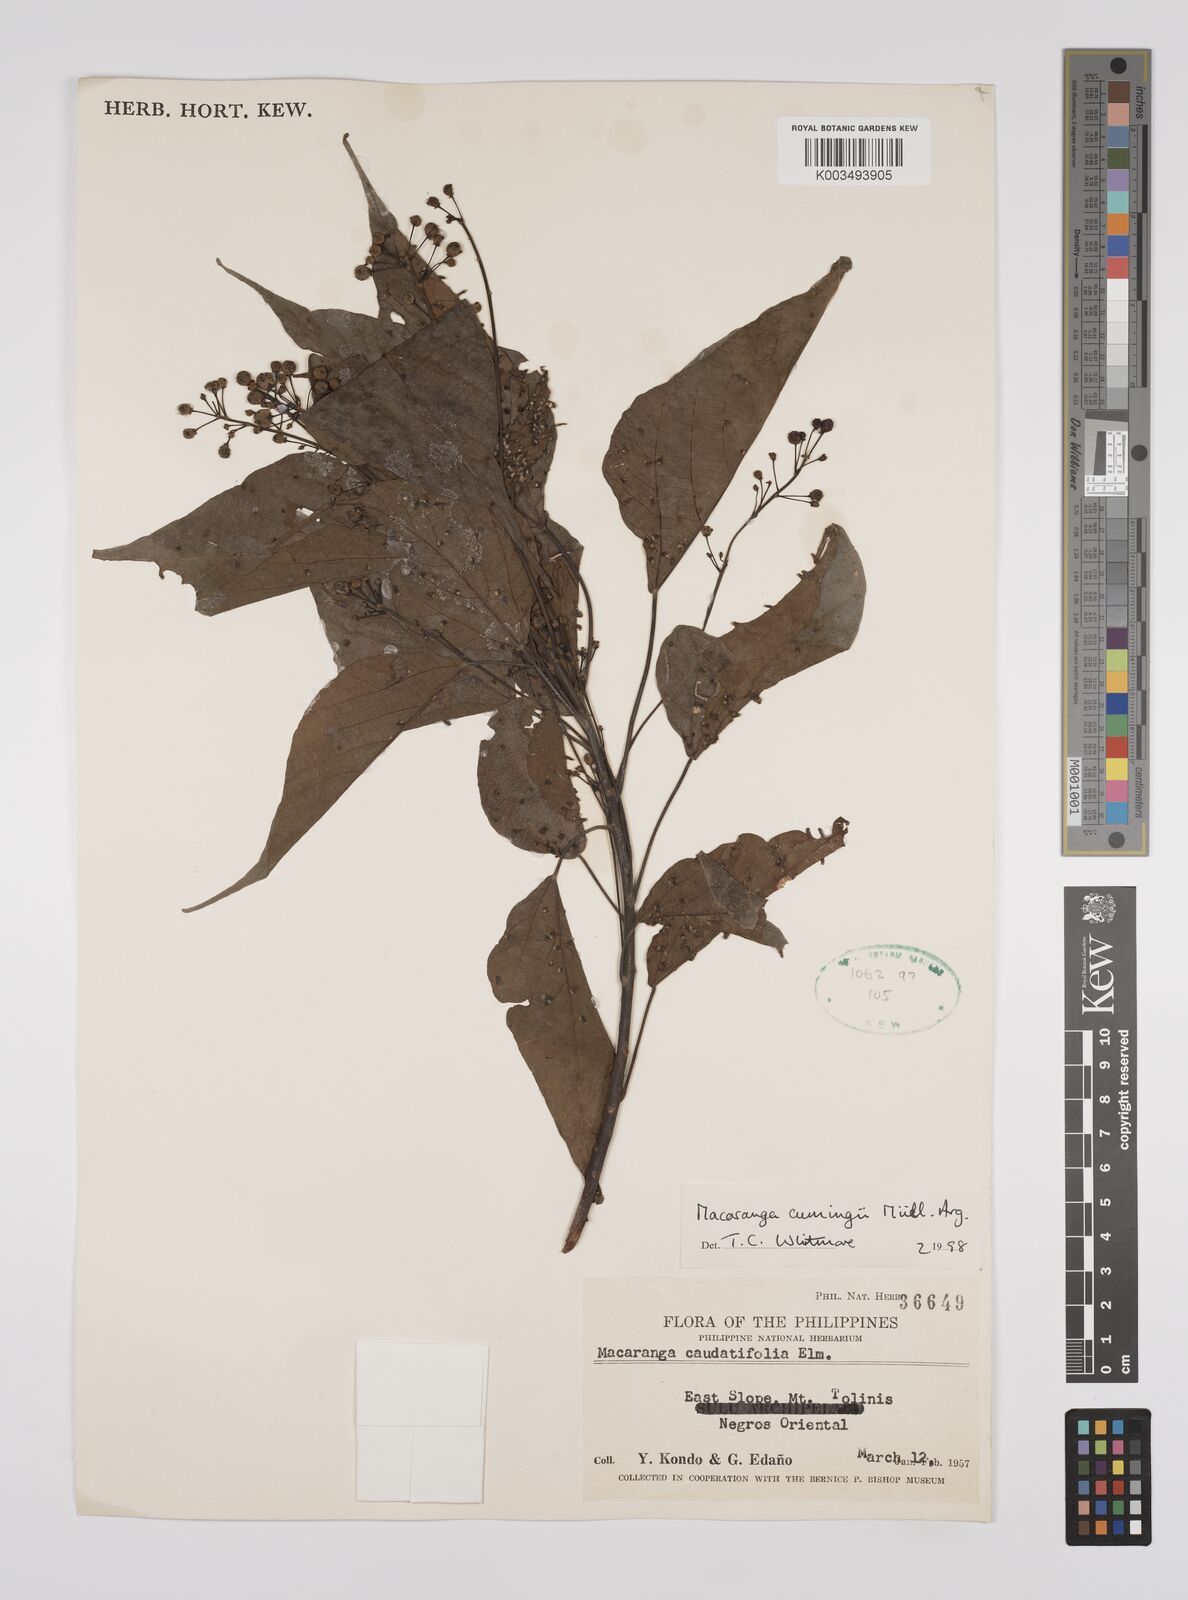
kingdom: Plantae
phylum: Tracheophyta
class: Magnoliopsida
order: Malpighiales
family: Euphorbiaceae
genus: Macaranga
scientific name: Macaranga cumingii
